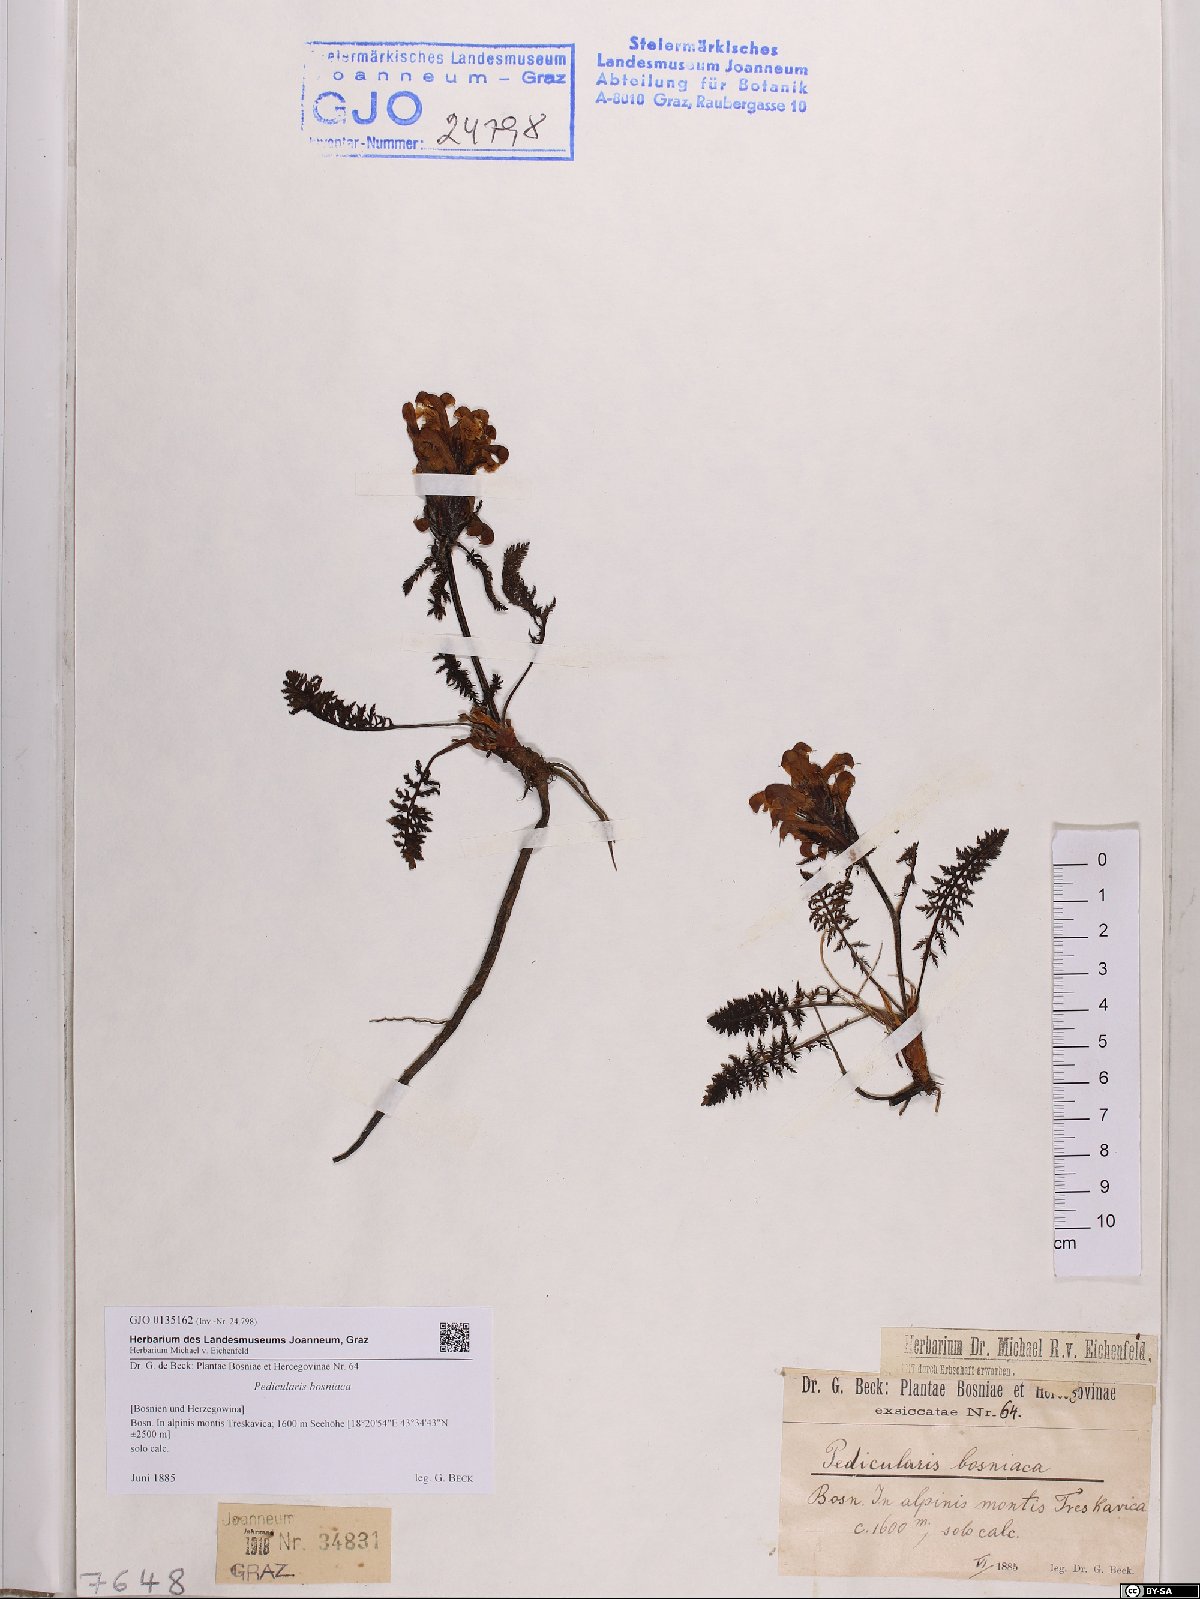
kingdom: Plantae
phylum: Tracheophyta
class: Magnoliopsida
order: Lamiales
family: Orobanchaceae
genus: Pedicularis
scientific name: Pedicularis brachyodonta
